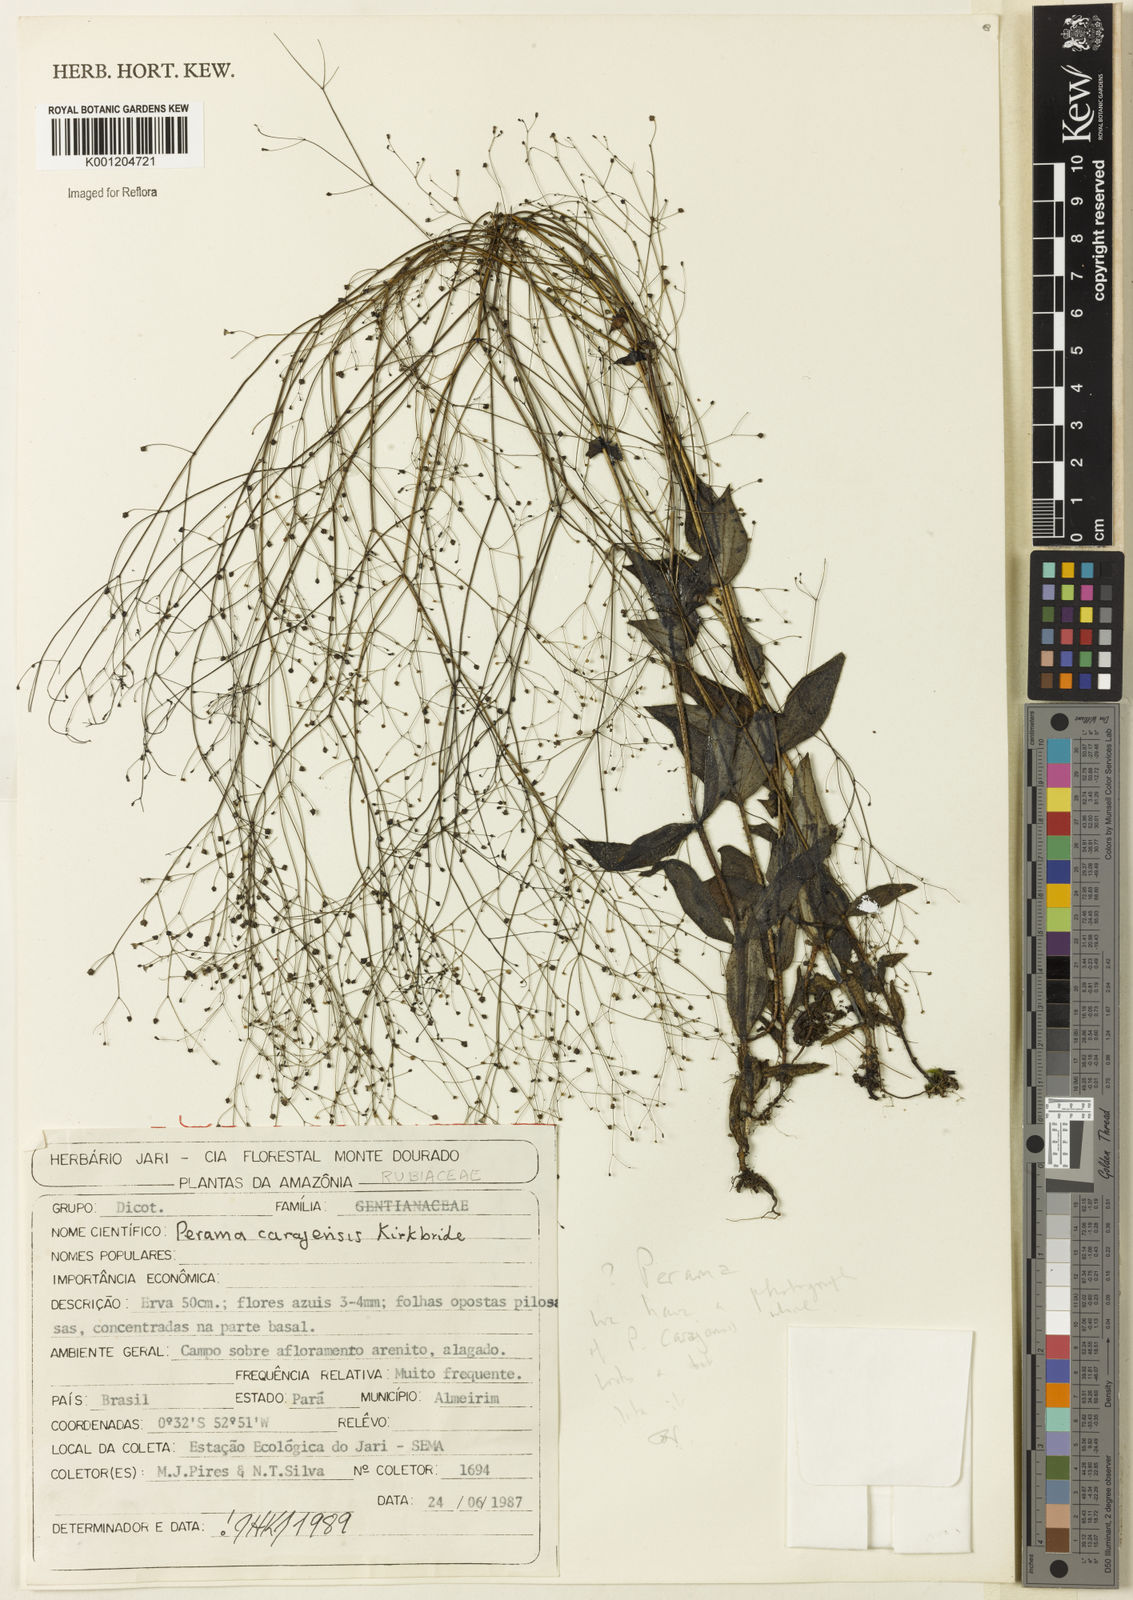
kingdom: Plantae
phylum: Tracheophyta
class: Magnoliopsida
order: Gentianales
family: Rubiaceae
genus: Perama
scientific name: Perama carajensis
